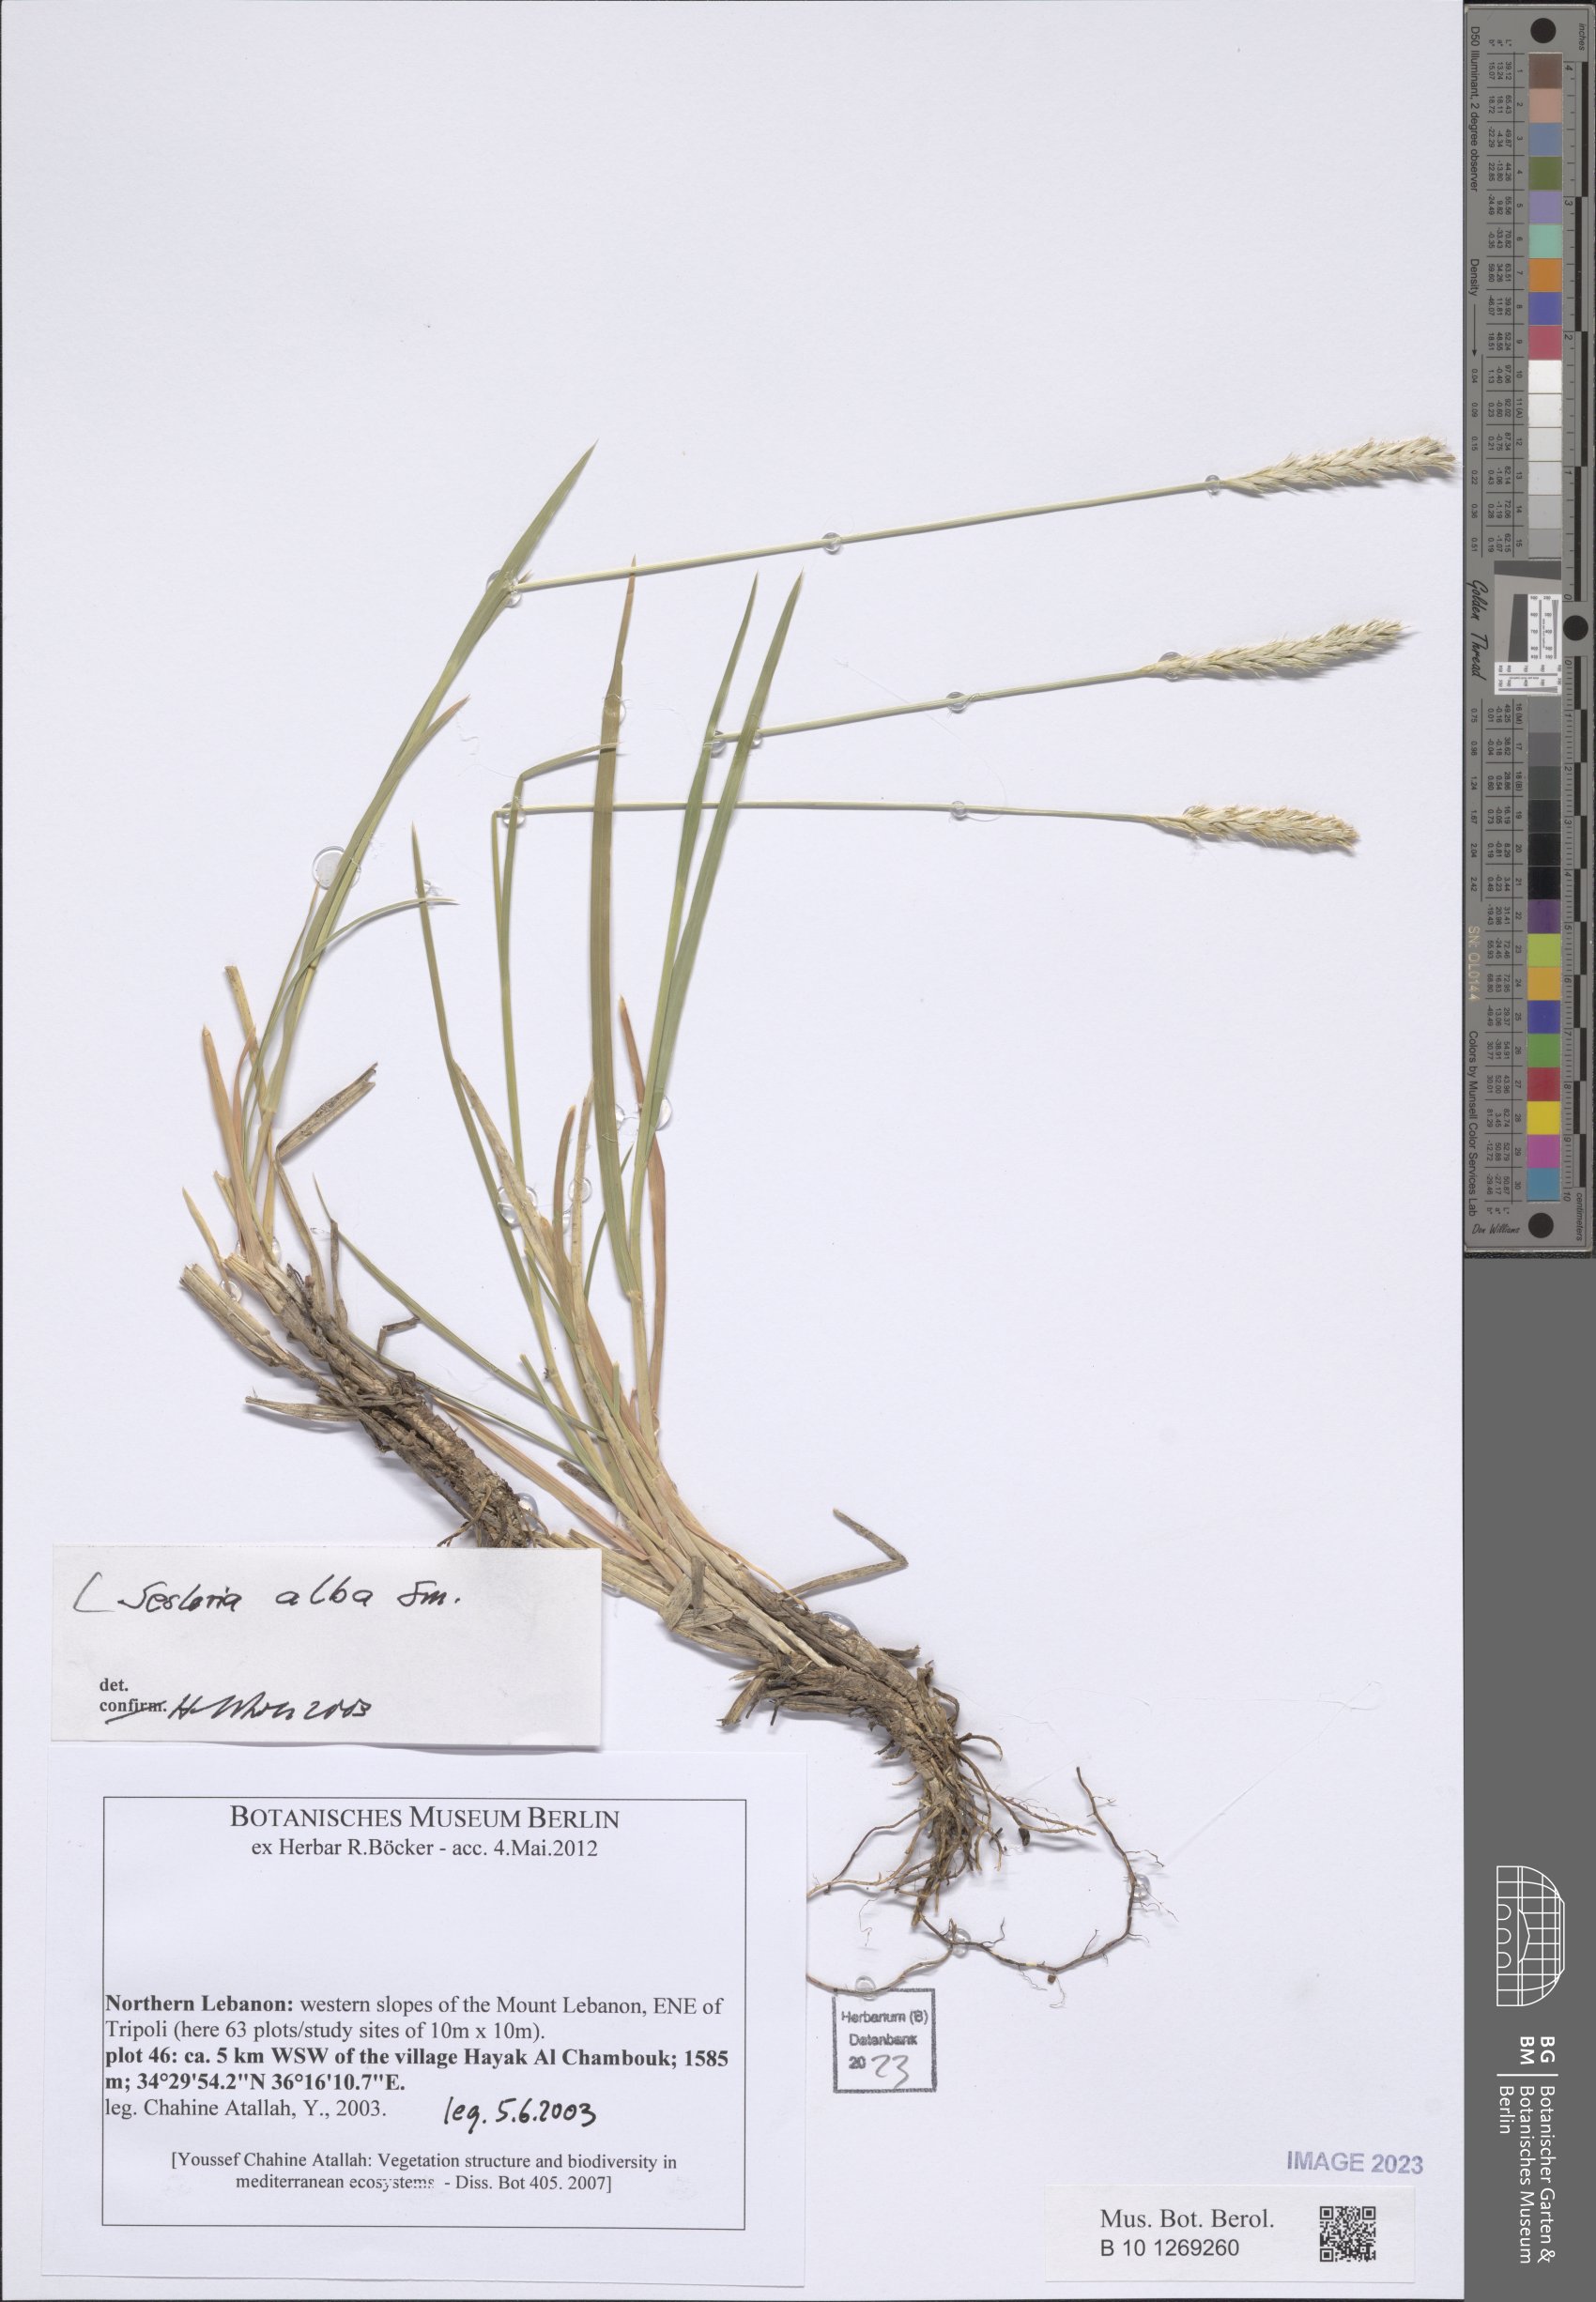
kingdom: Plantae
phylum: Tracheophyta
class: Liliopsida
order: Poales
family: Poaceae
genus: Sesleria
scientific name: Sesleria alba
